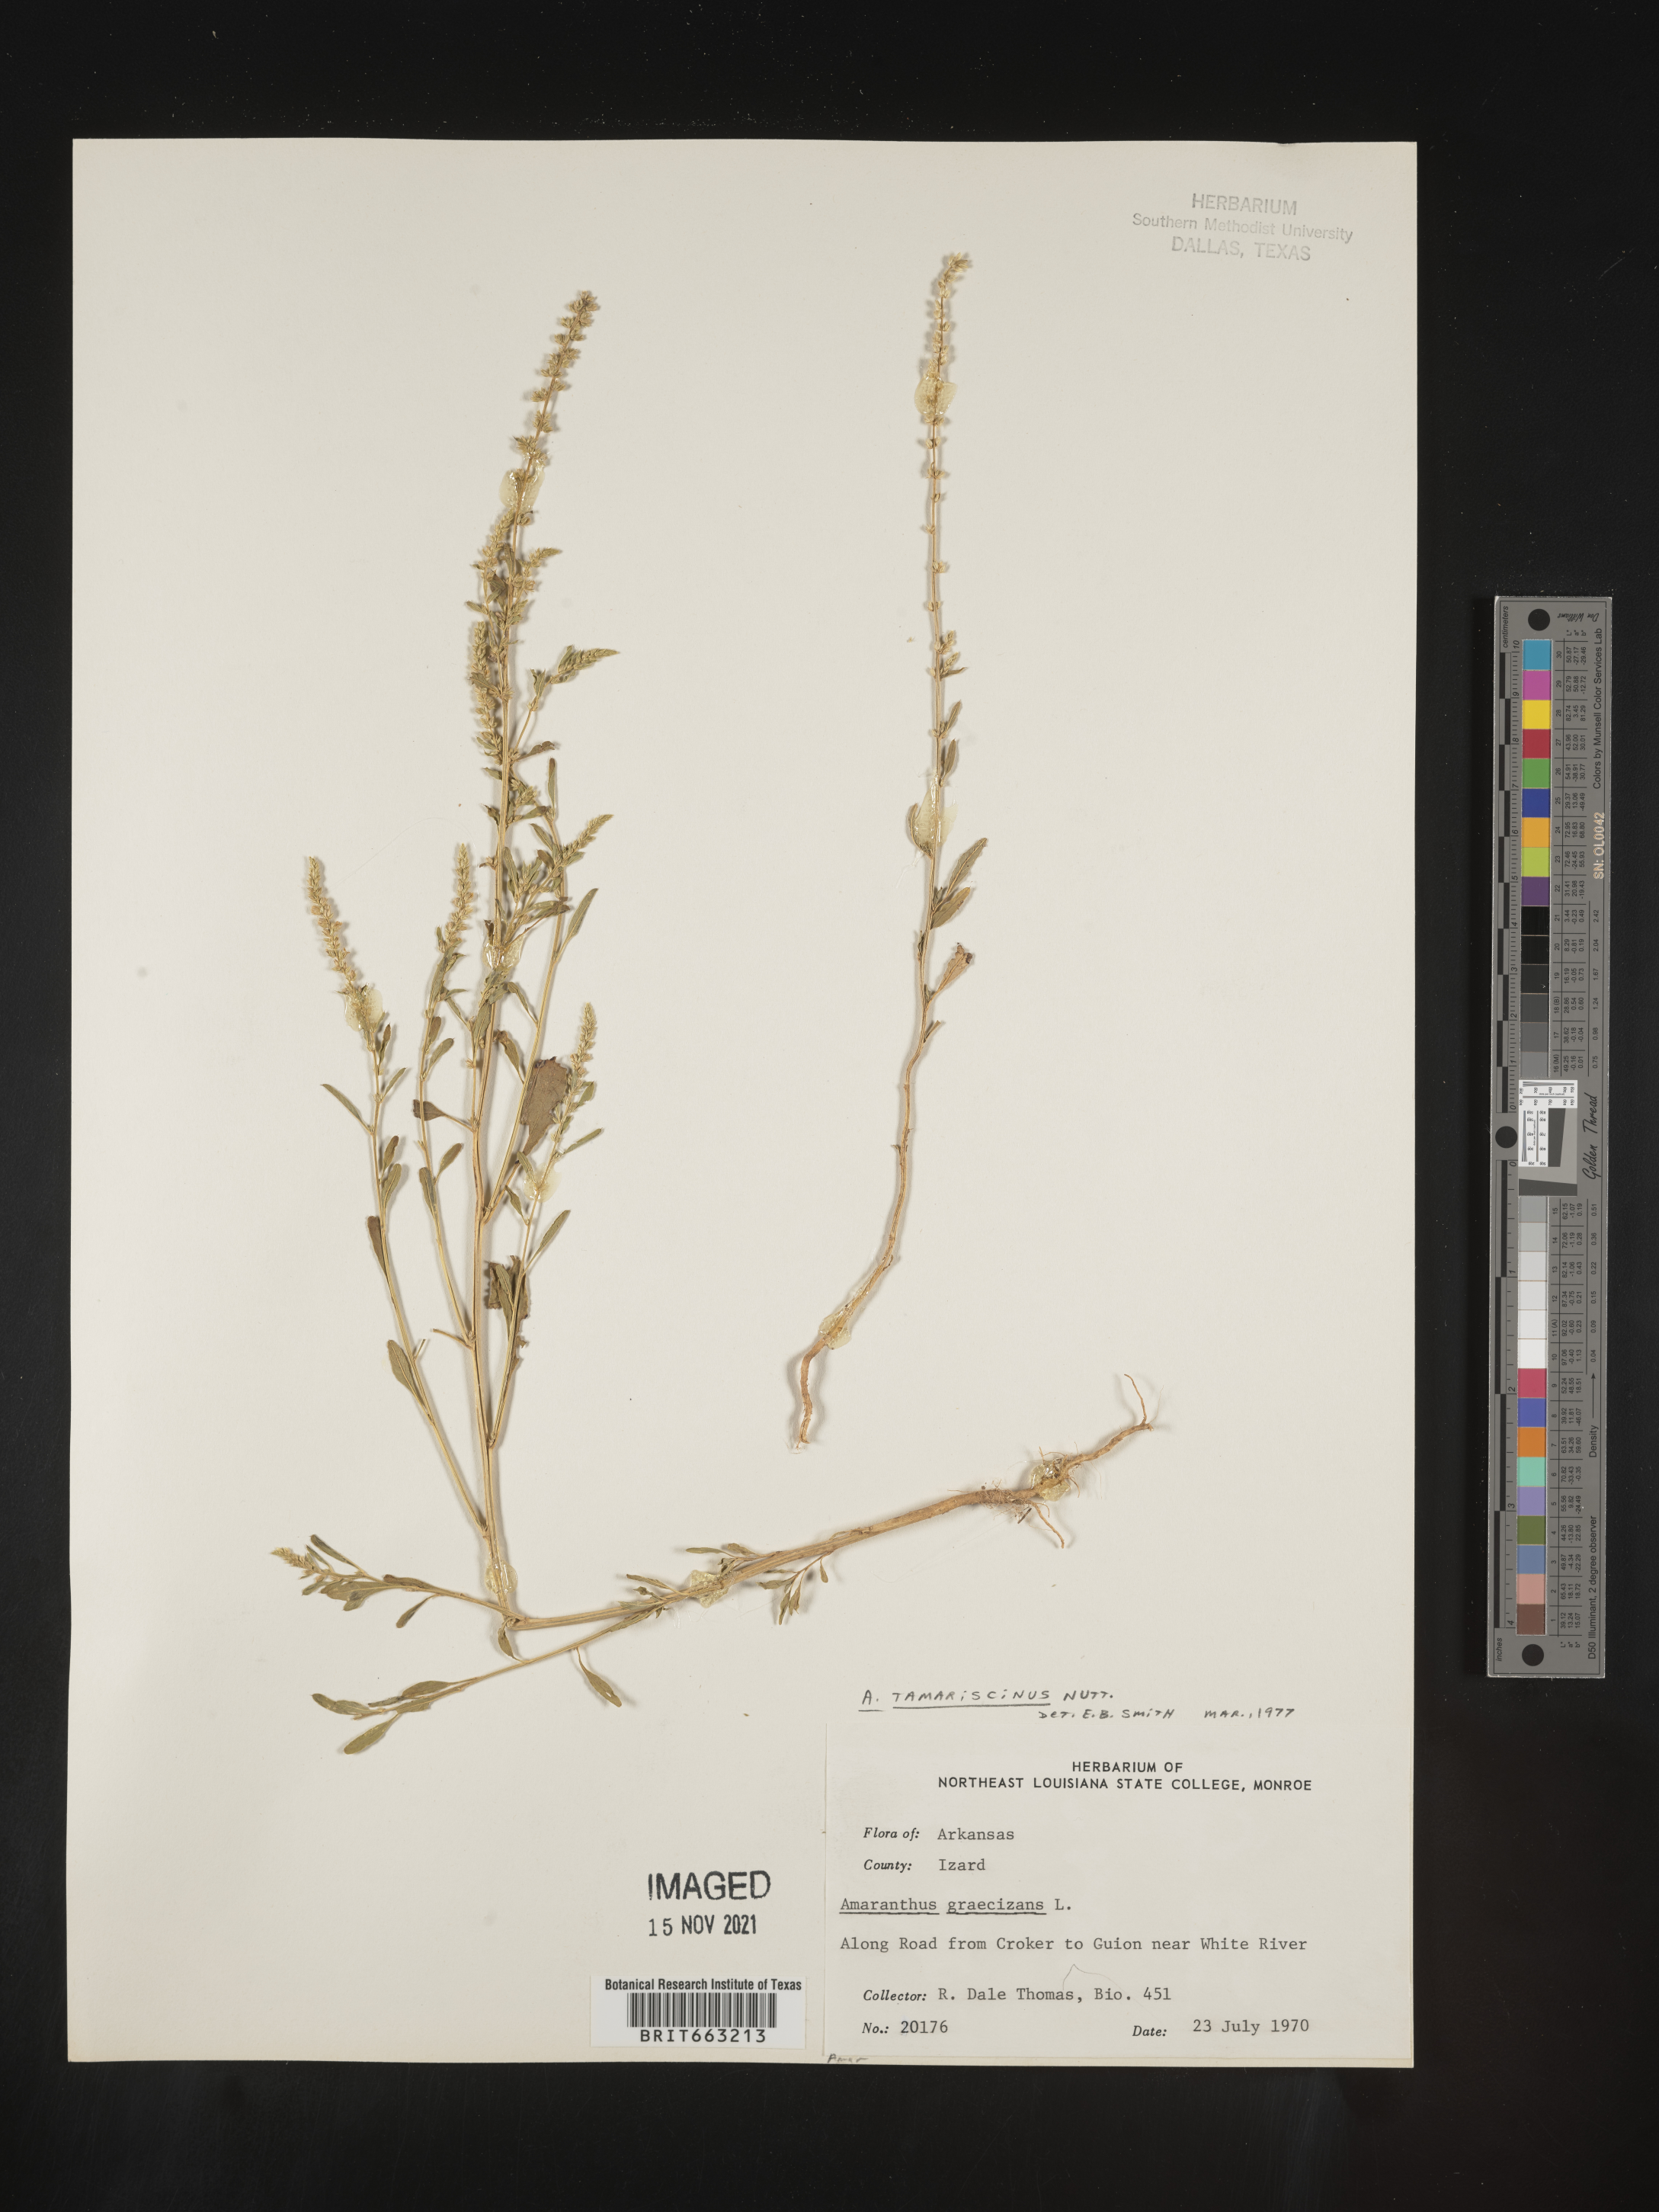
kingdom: Plantae
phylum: Tracheophyta
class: Magnoliopsida
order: Caryophyllales
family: Amaranthaceae
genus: Amaranthus
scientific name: Amaranthus tamariscinus
